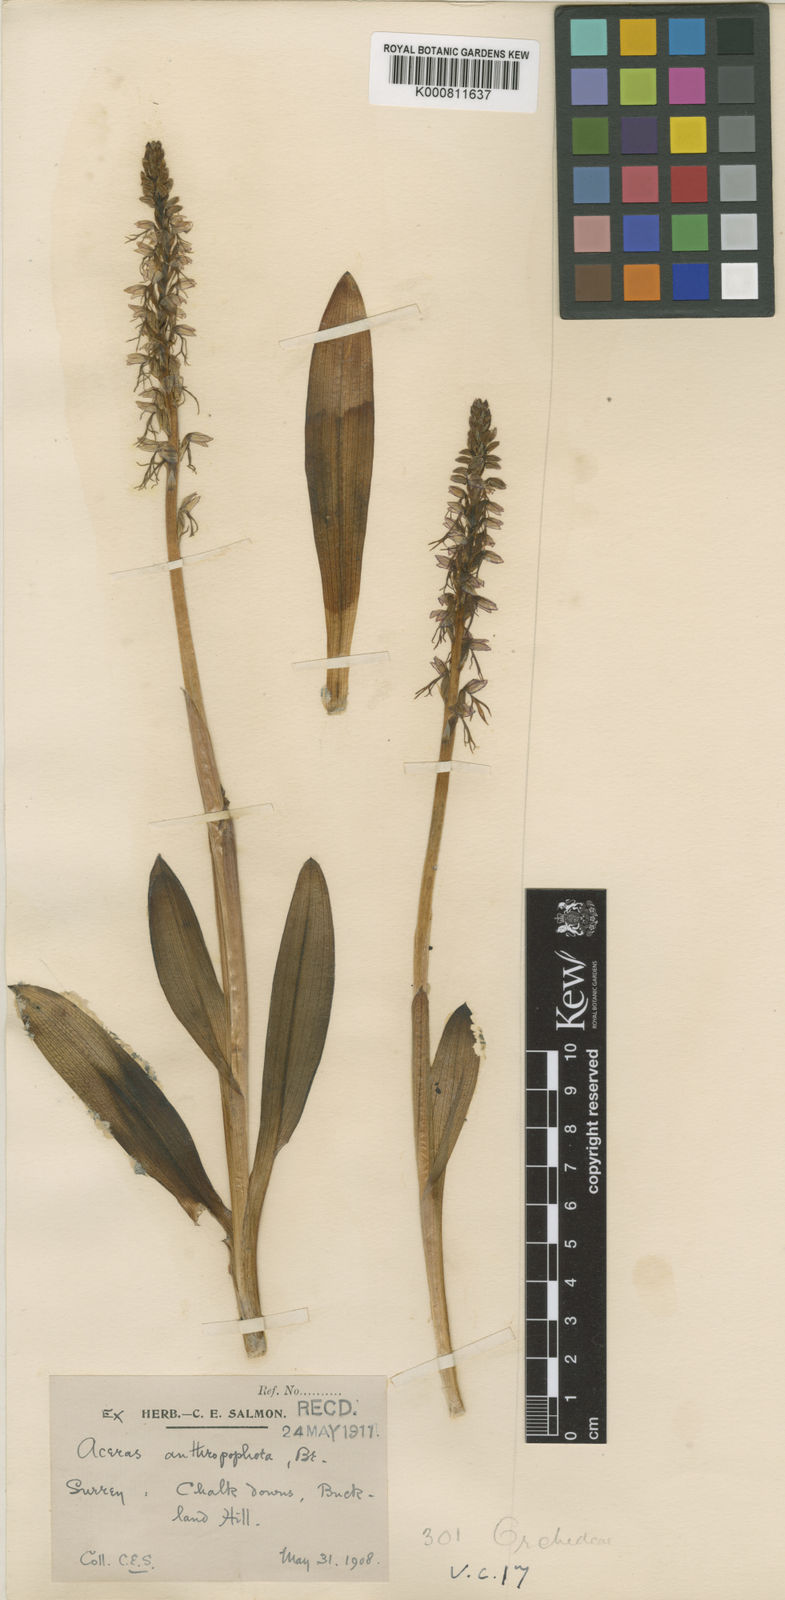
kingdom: Plantae
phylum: Tracheophyta
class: Liliopsida
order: Asparagales
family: Orchidaceae
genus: Orchis
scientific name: Orchis
